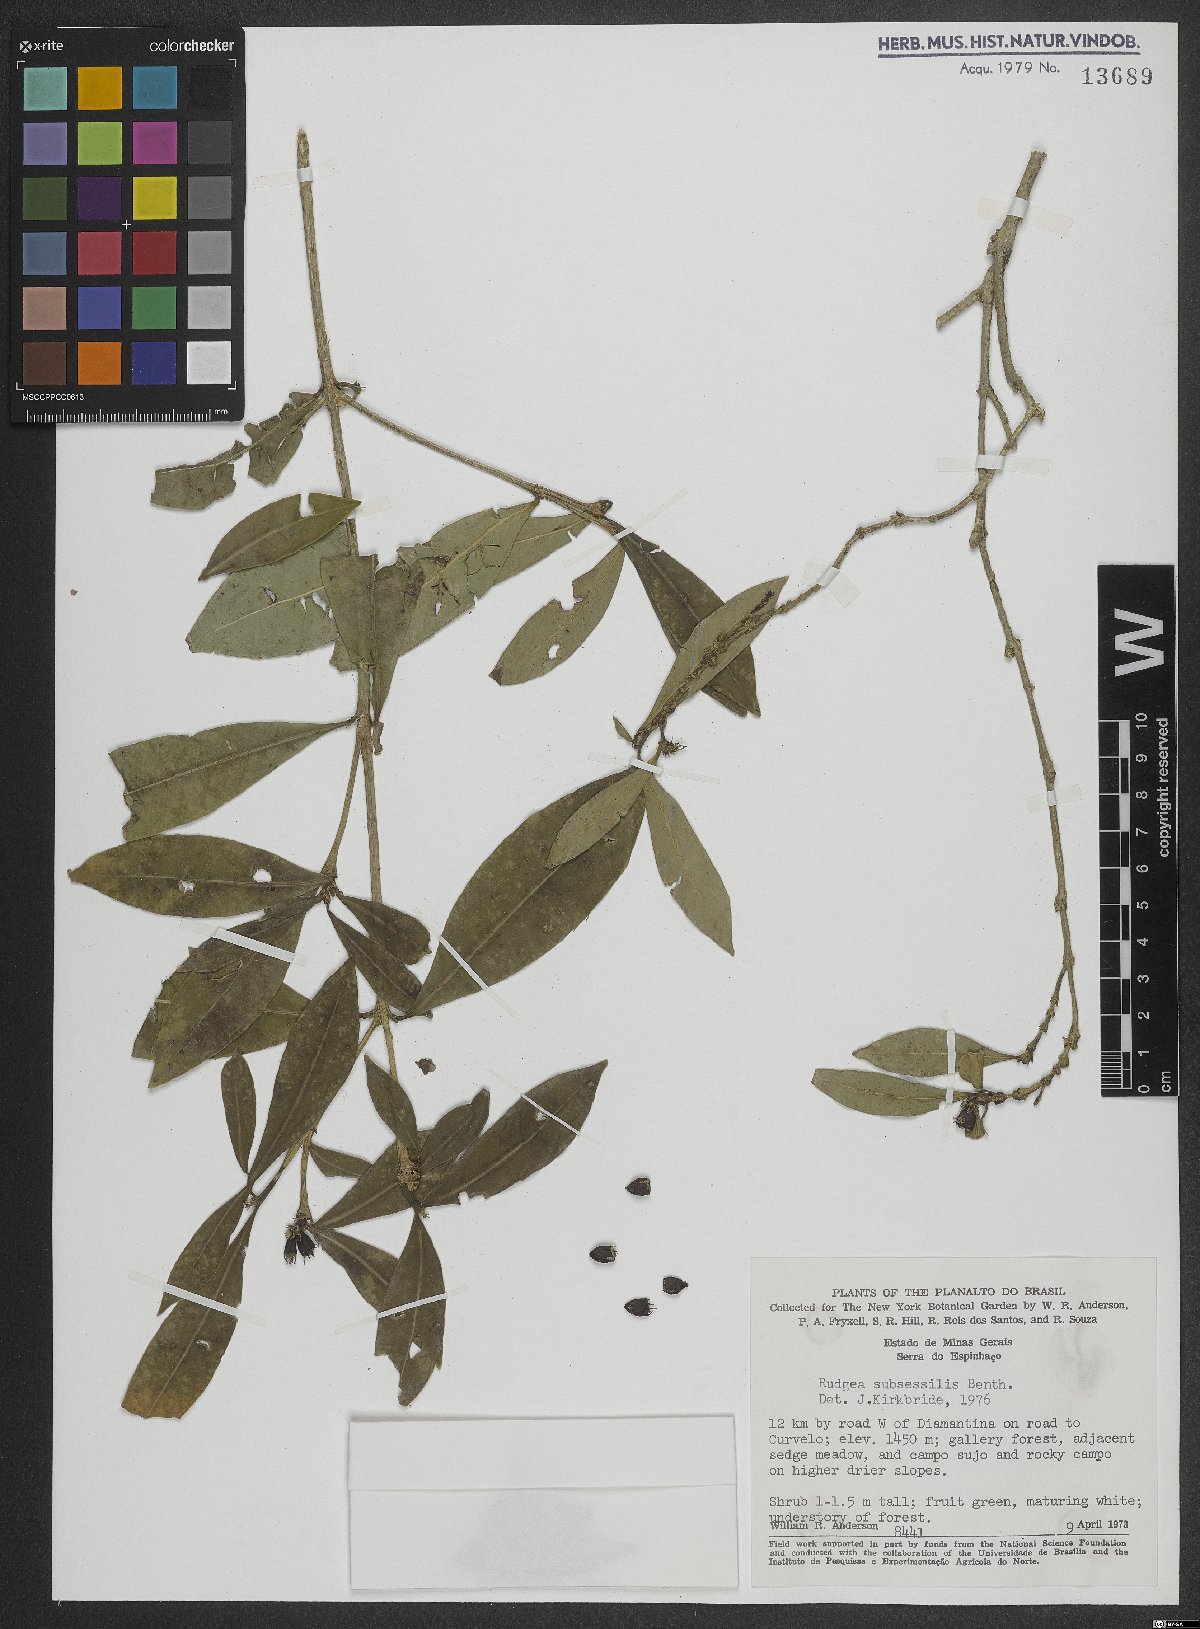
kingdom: Plantae
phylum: Tracheophyta
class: Magnoliopsida
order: Gentianales
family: Rubiaceae
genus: Rudgea
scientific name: Rudgea sessilis
